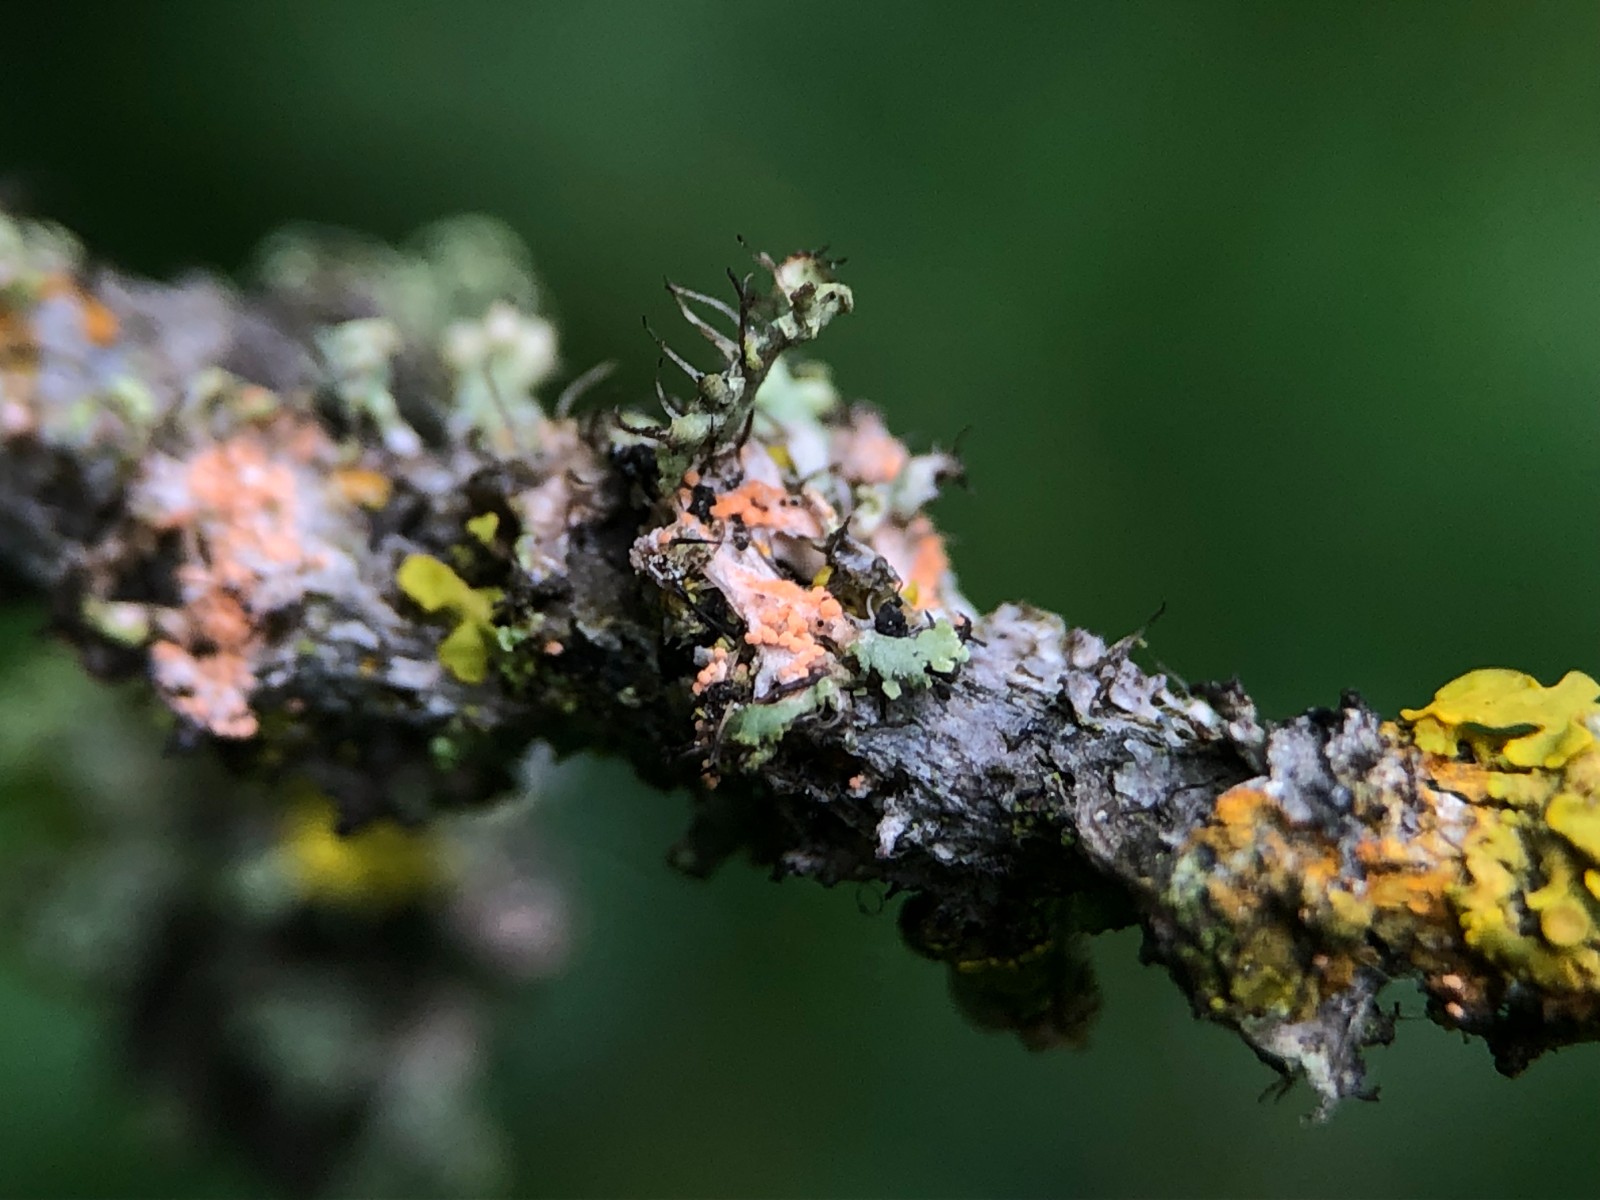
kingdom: Fungi
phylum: Basidiomycota
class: Agaricomycetes
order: Corticiales
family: Corticiaceae
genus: Erythricium
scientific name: Erythricium aurantiacum
